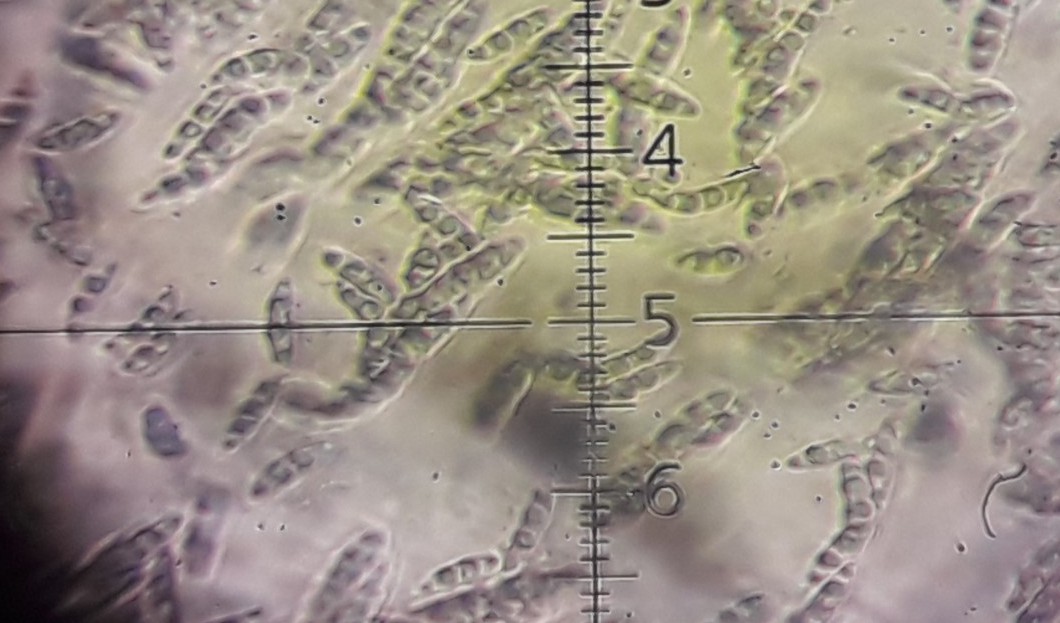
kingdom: Fungi
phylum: Ascomycota
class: Sordariomycetes
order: Diaporthales
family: Diaporthaceae
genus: Diaporthe
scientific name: Diaporthe strumella
